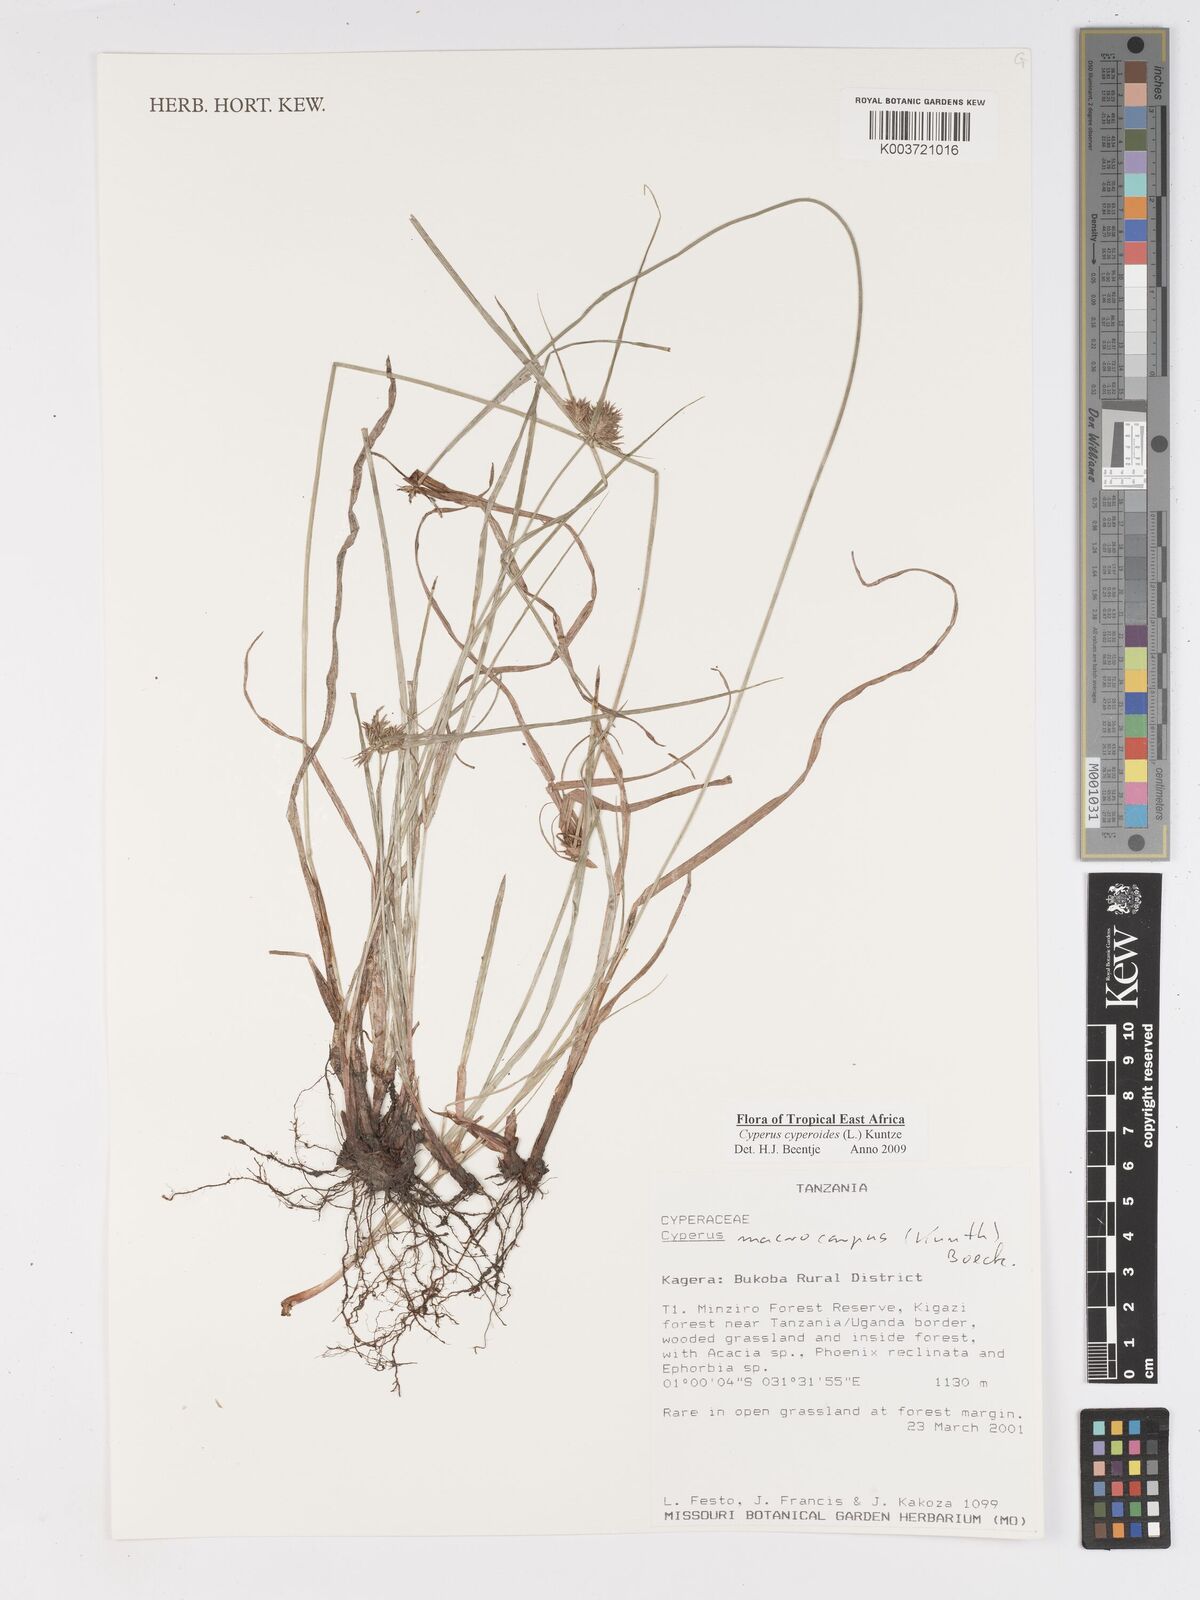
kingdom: Plantae
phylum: Tracheophyta
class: Liliopsida
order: Poales
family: Cyperaceae
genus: Cyperus
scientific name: Cyperus cyperoides
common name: Pacific island flat sedge
